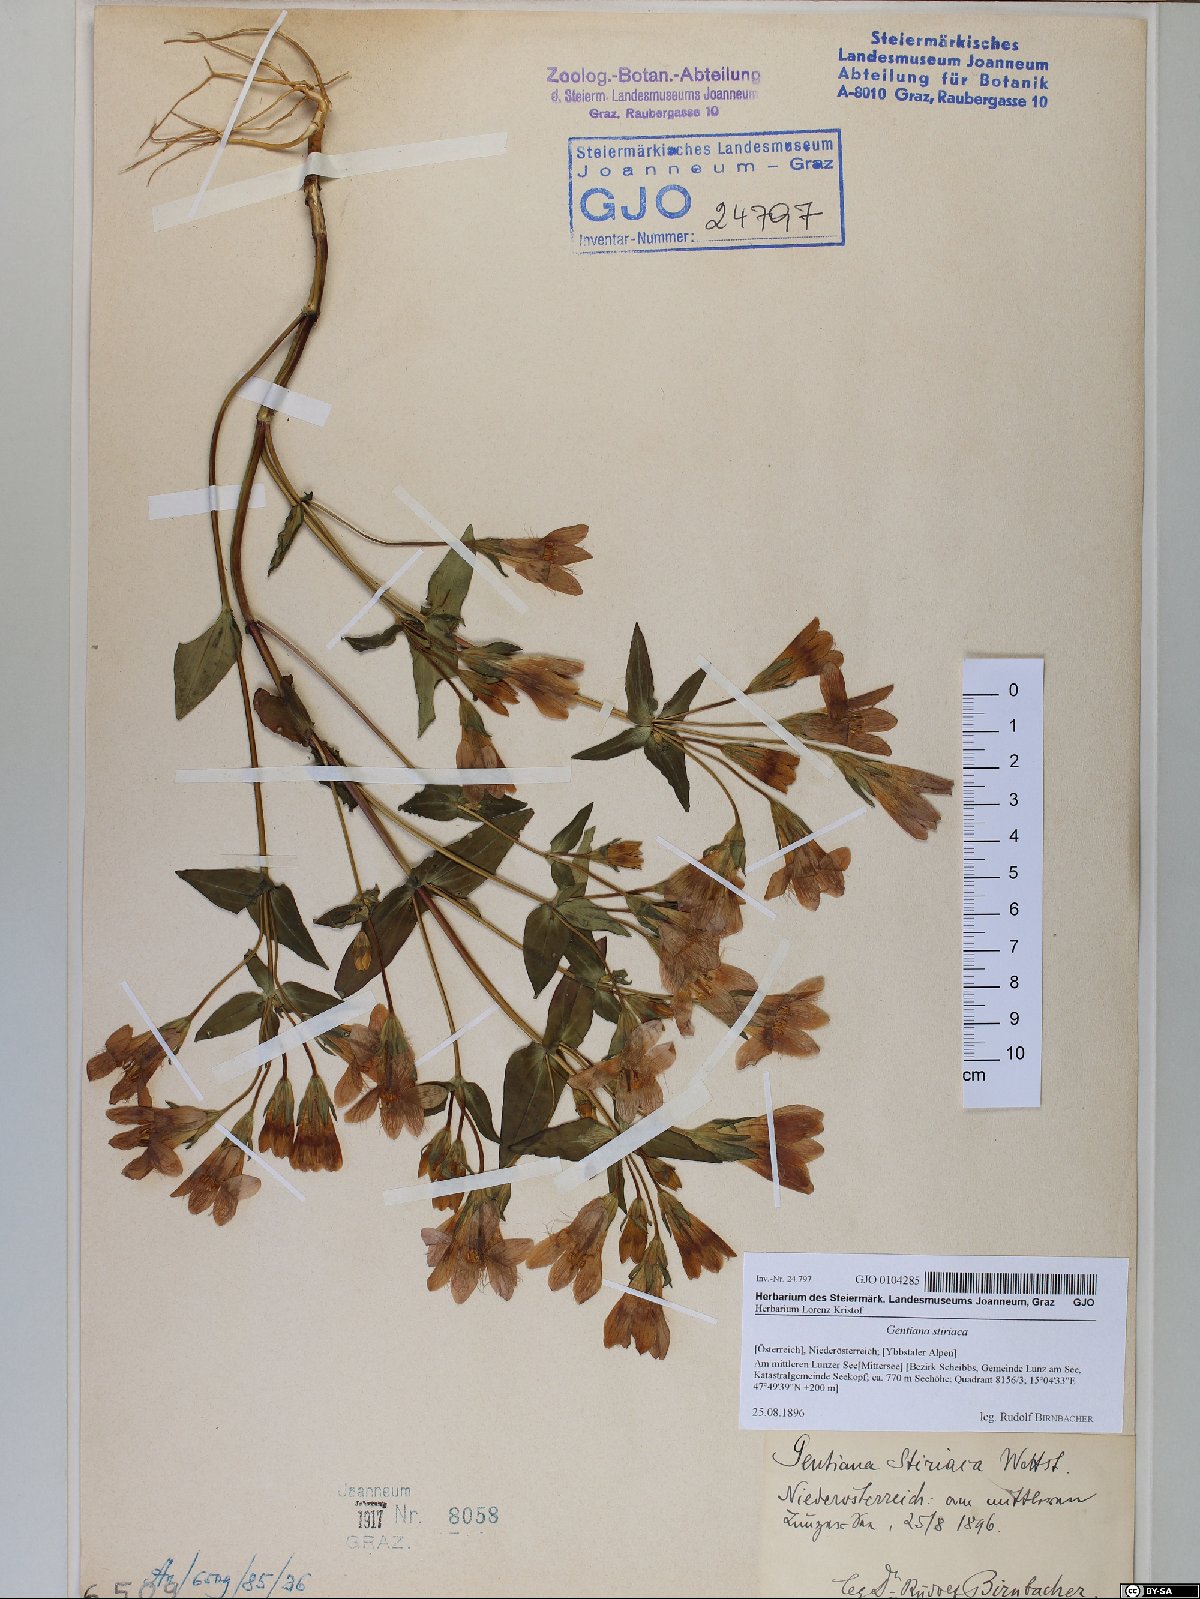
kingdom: Plantae
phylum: Tracheophyta
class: Magnoliopsida
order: Gentianales
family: Gentianaceae
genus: Gentianella
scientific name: Gentianella rhaetica
